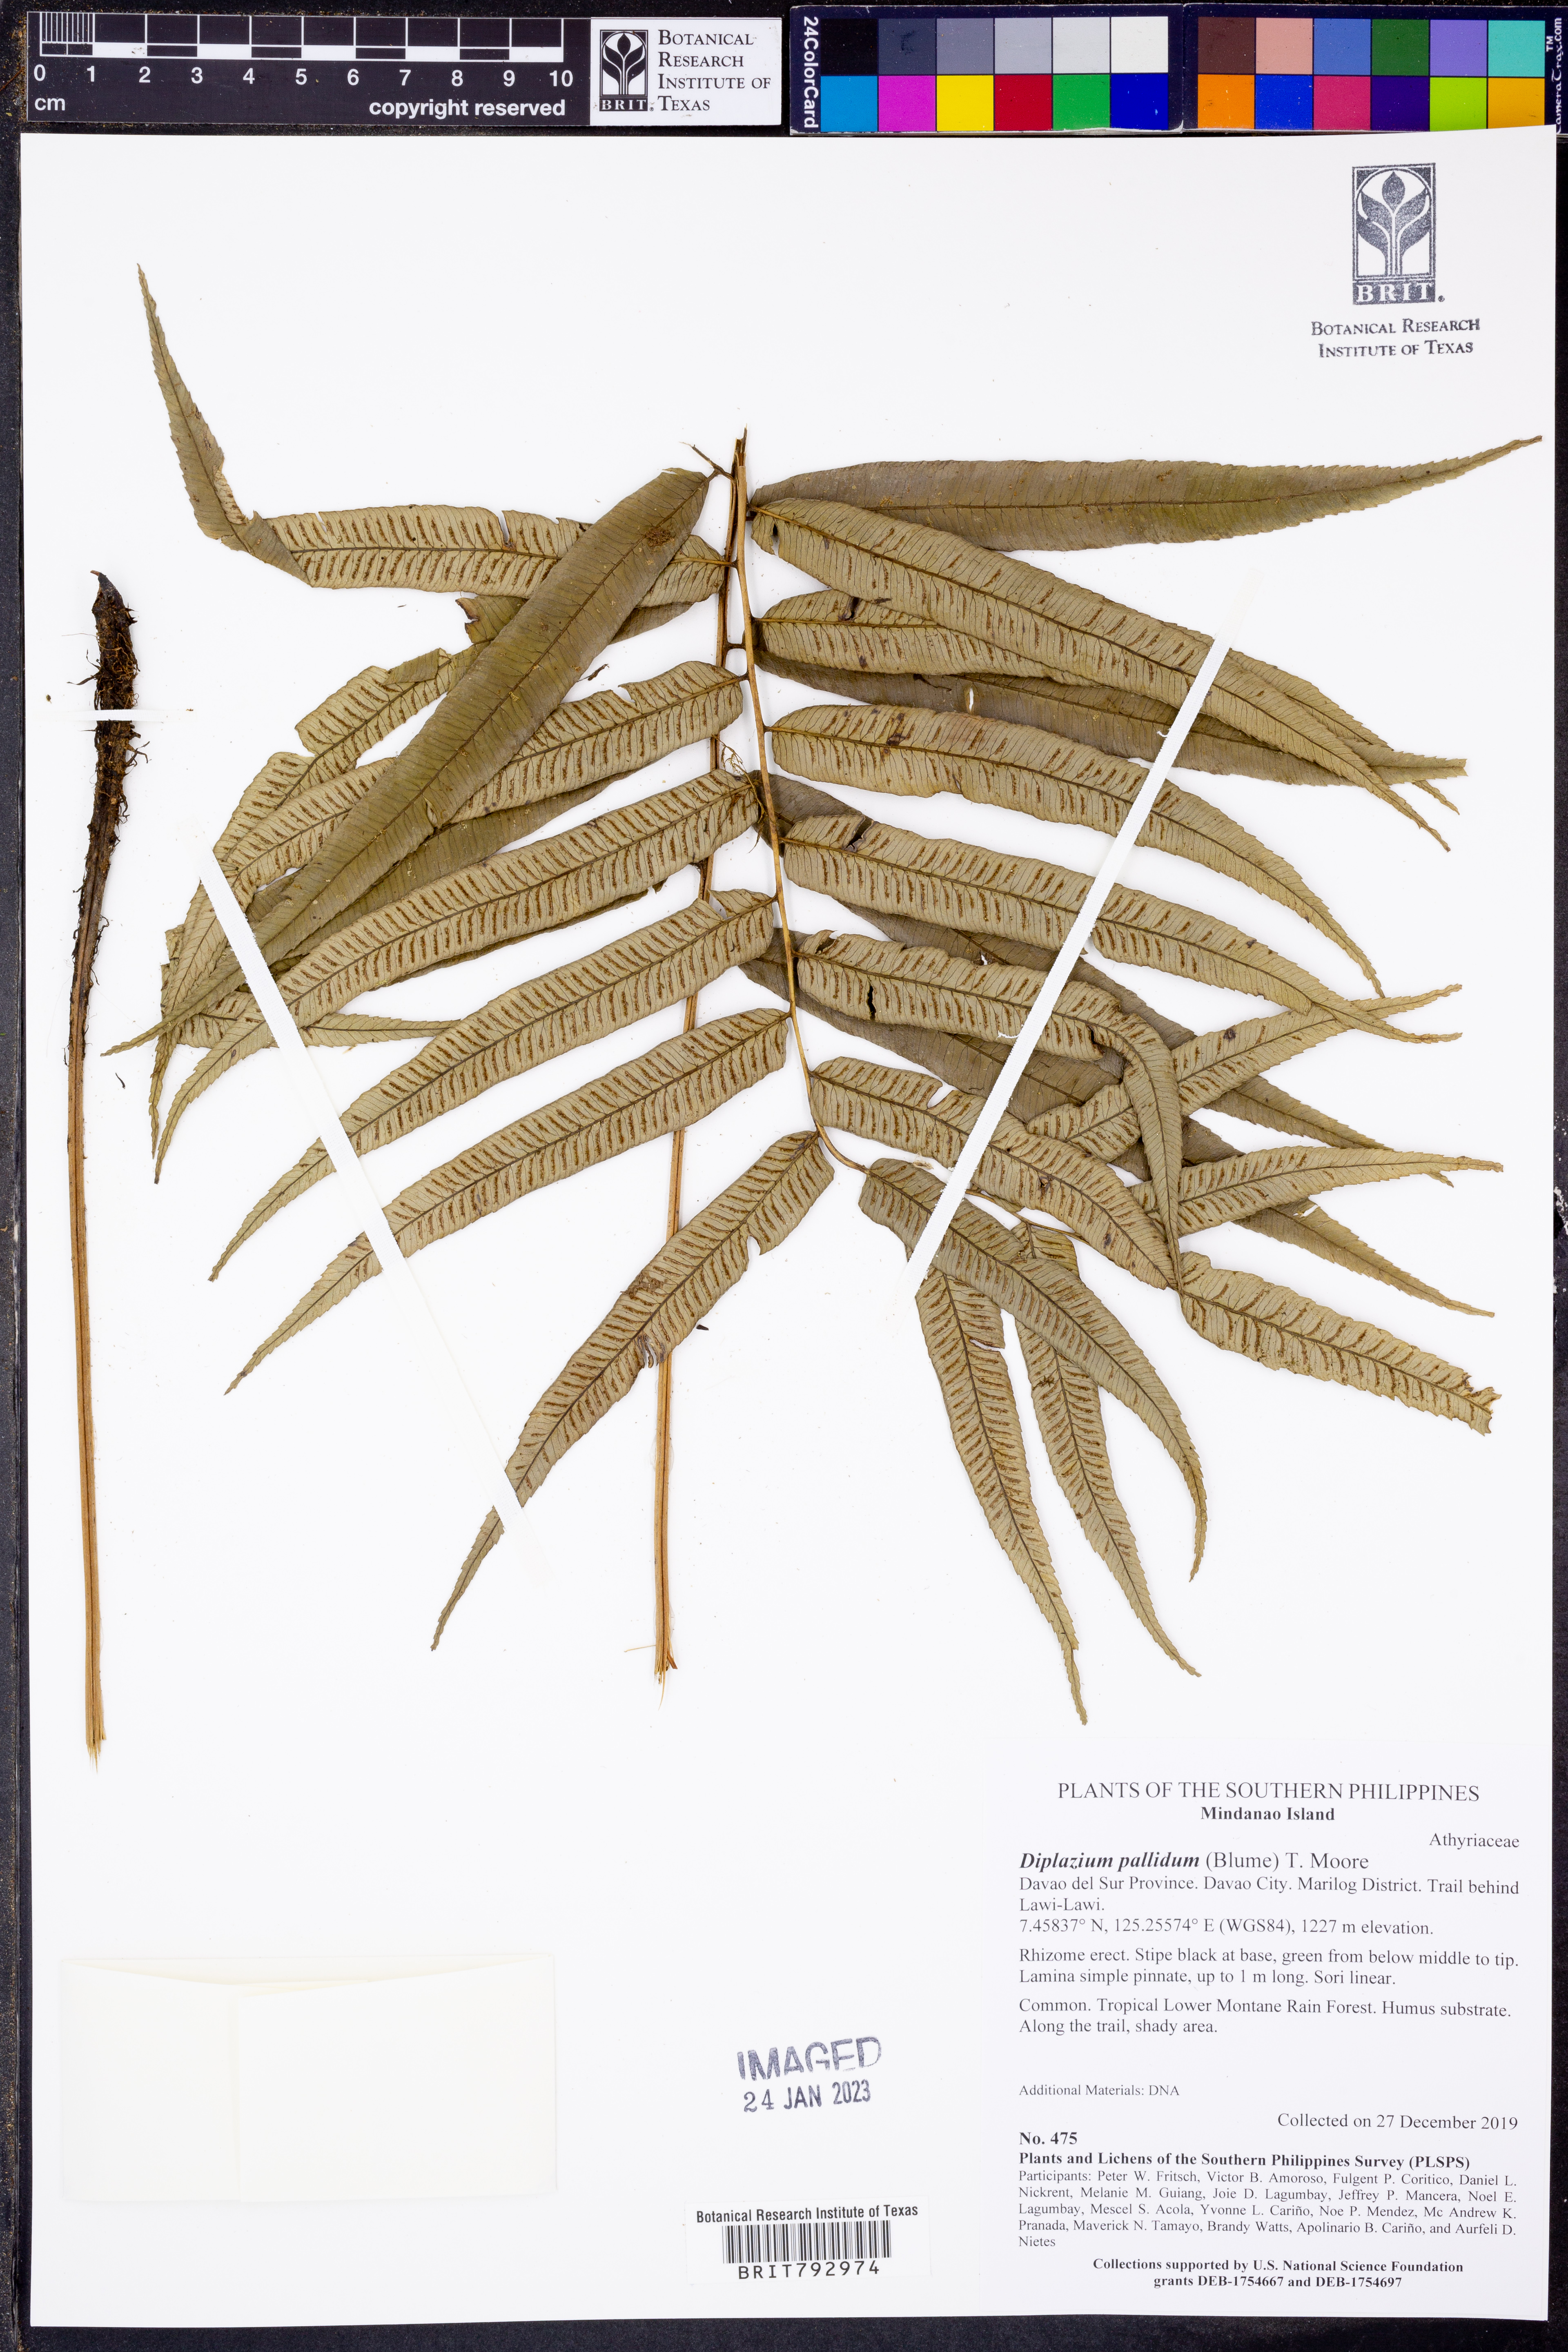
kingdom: Plantae
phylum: Tracheophyta
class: Polypodiopsida
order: Polypodiales
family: Athyriaceae
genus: Diplazium
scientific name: Diplazium pallidum
